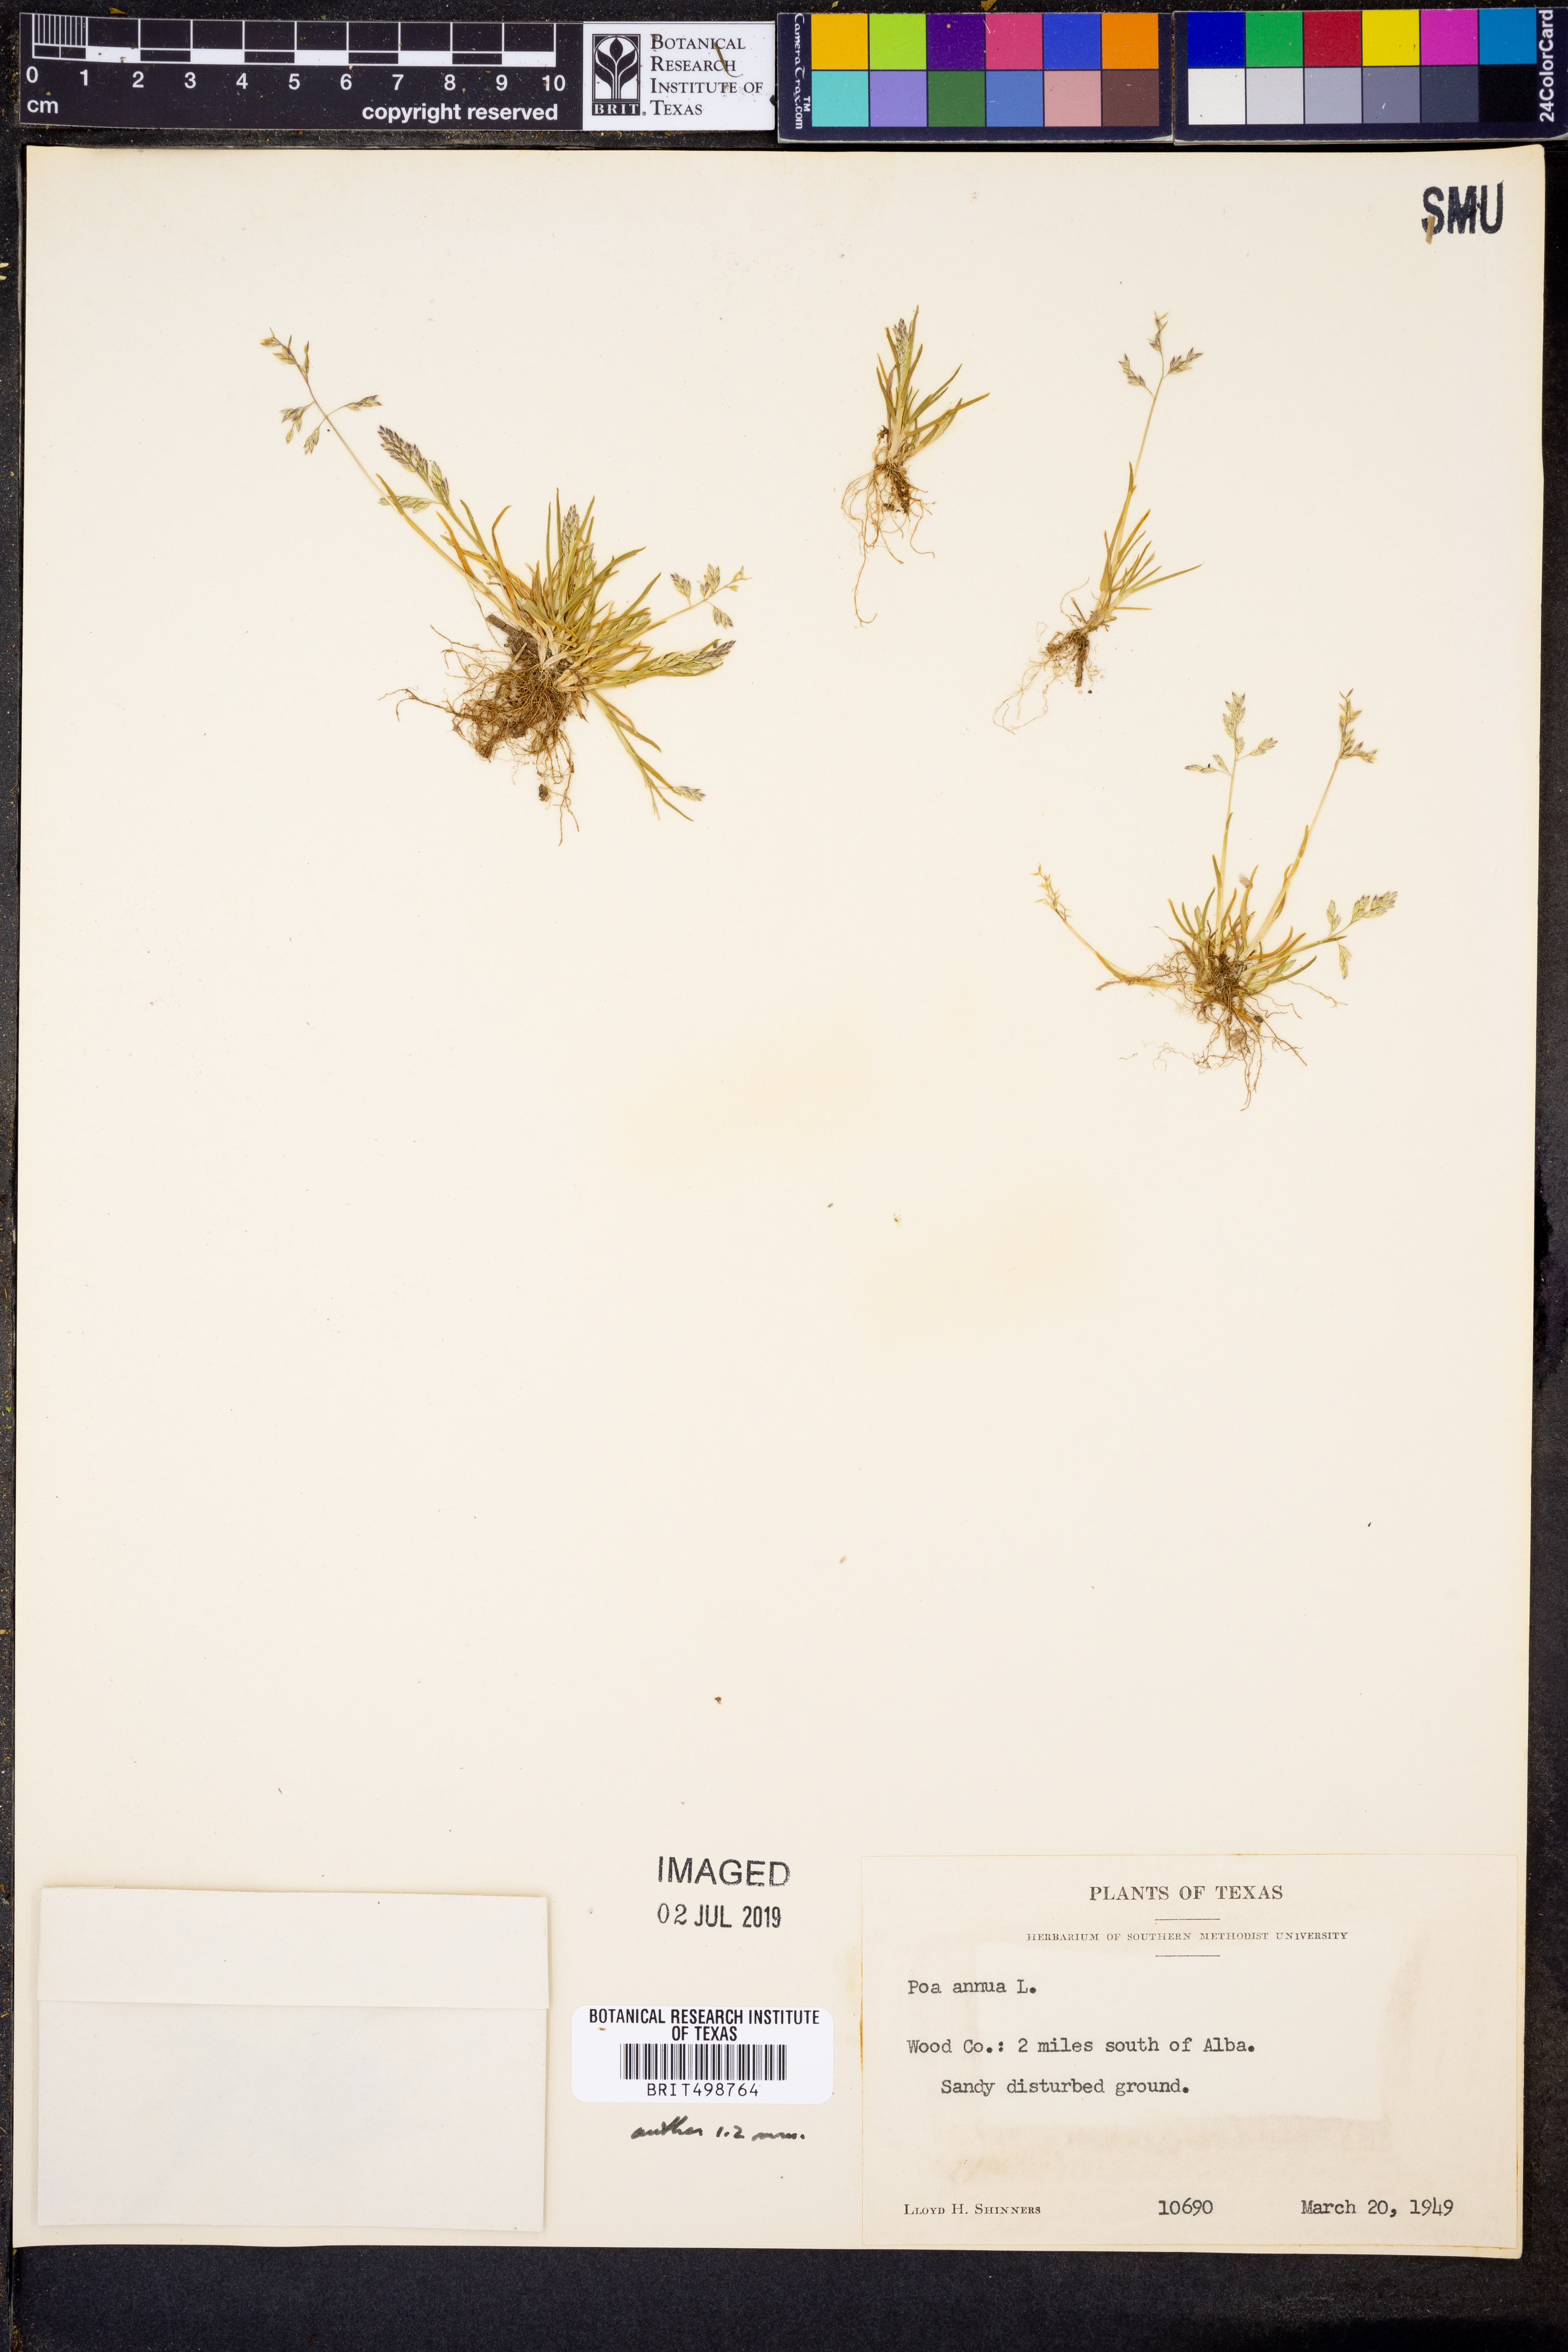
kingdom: Plantae
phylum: Tracheophyta
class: Liliopsida
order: Poales
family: Poaceae
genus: Poa
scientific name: Poa annua
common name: Annual bluegrass
